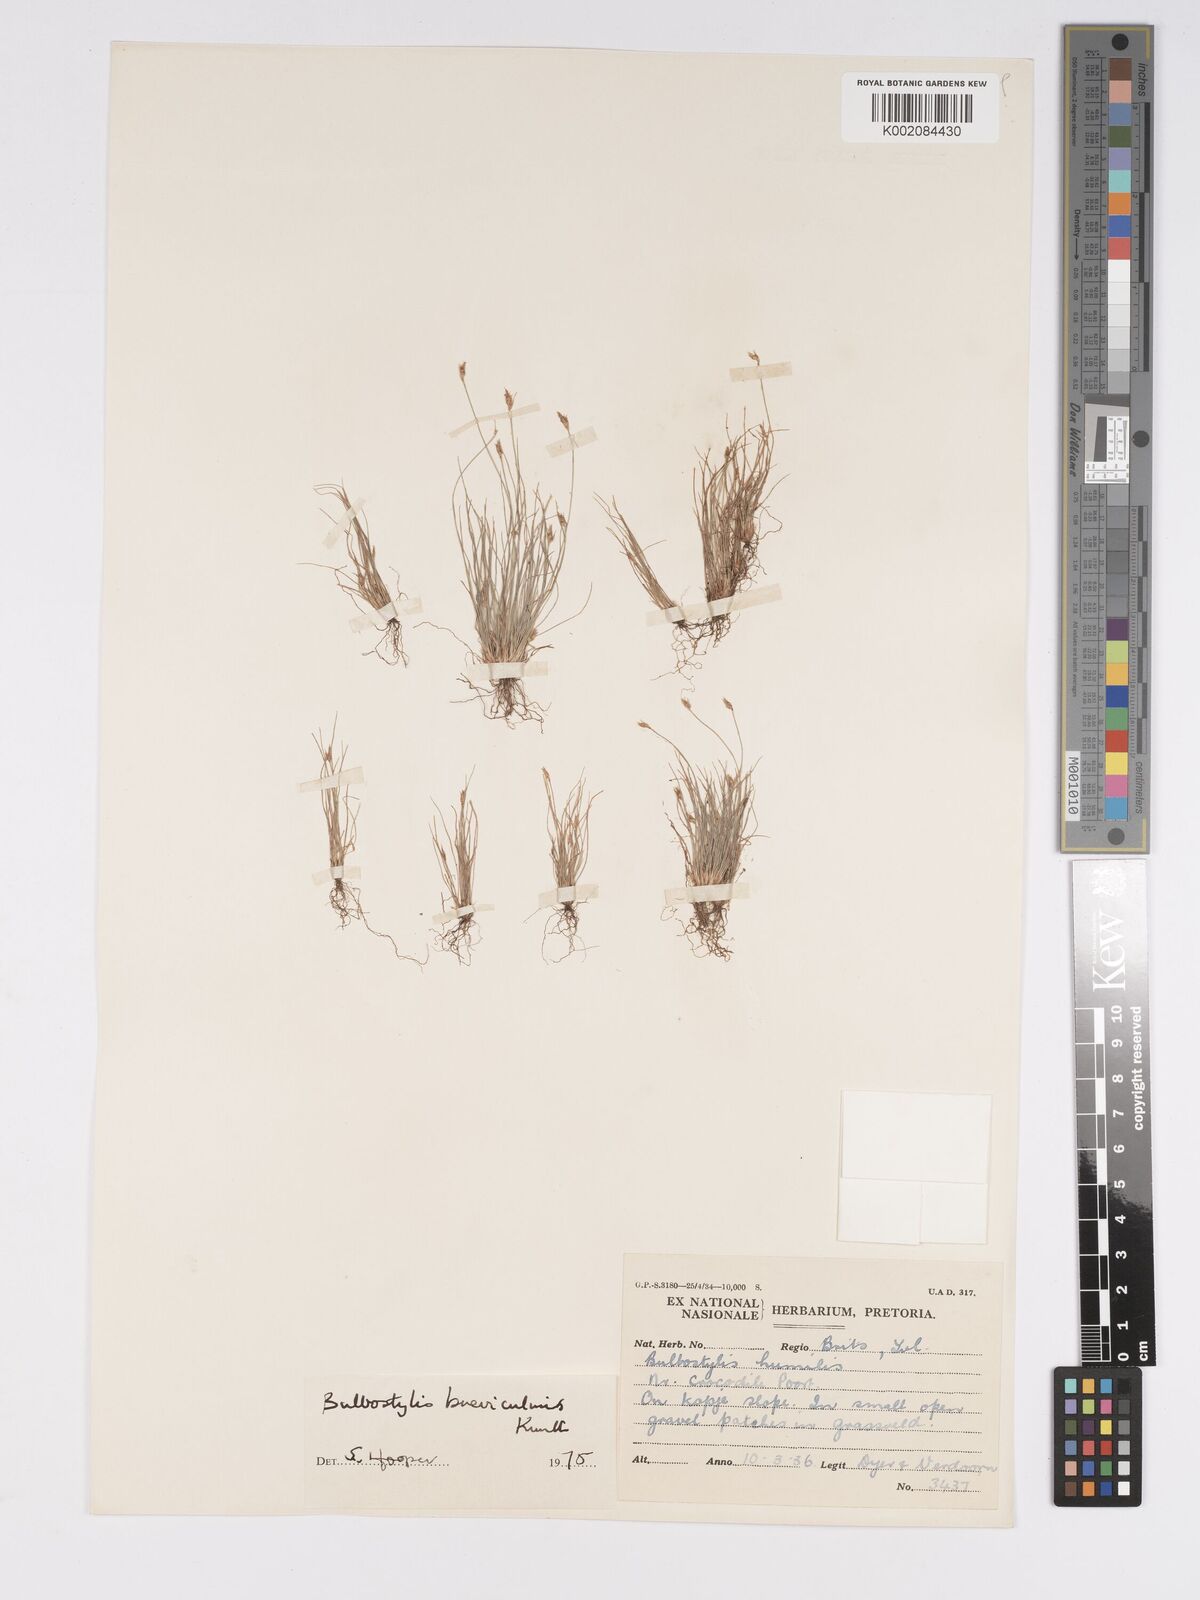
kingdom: Plantae
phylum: Tracheophyta
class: Liliopsida
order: Poales
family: Cyperaceae
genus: Bulbostylis
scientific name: Bulbostylis humilis
